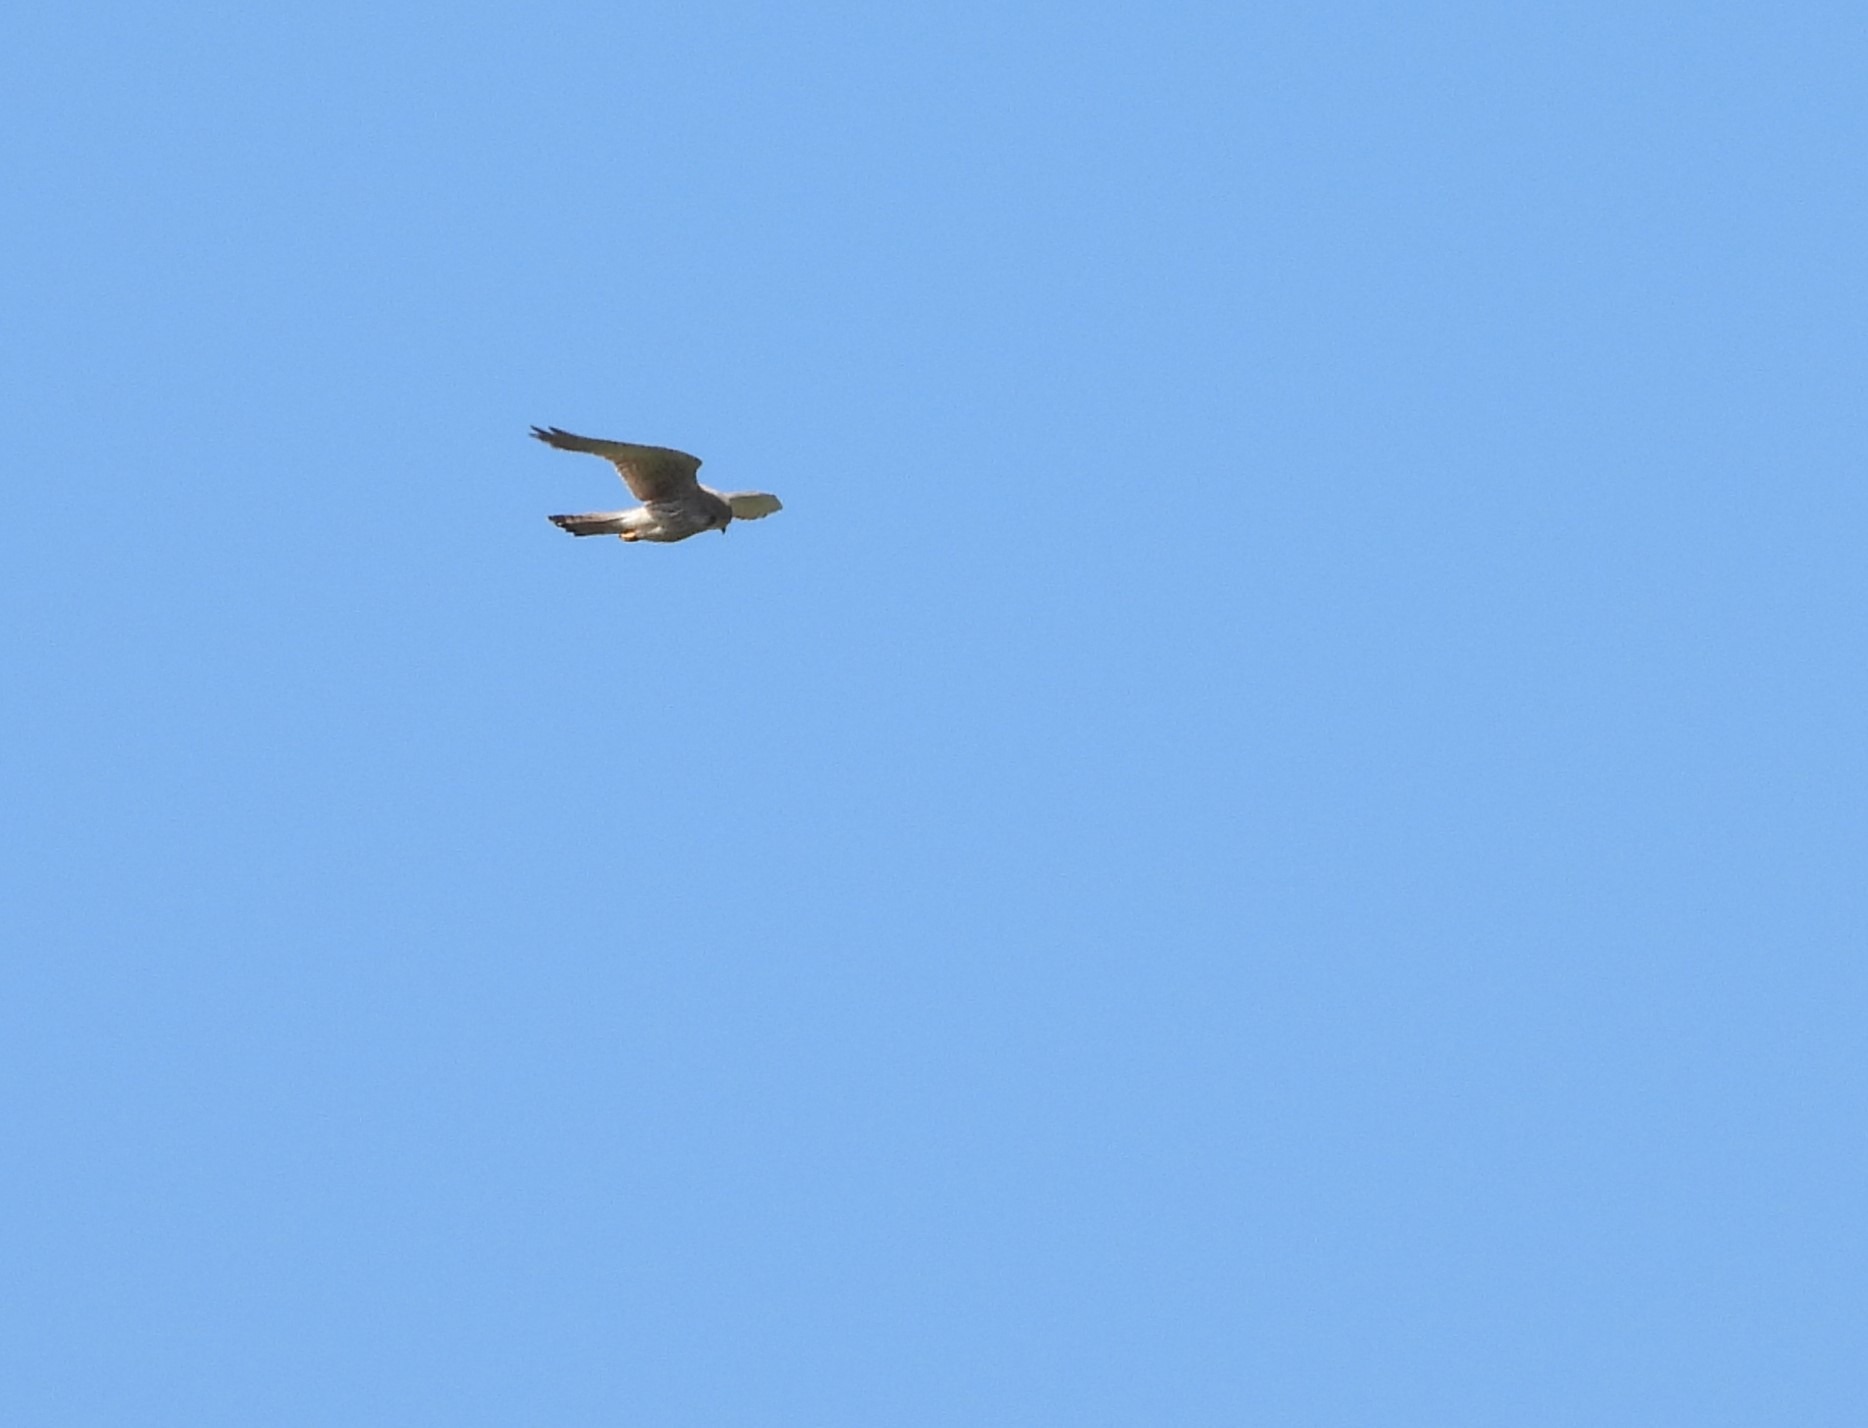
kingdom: Animalia
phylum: Chordata
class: Aves
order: Falconiformes
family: Falconidae
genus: Falco
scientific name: Falco tinnunculus
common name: Tårnfalk
